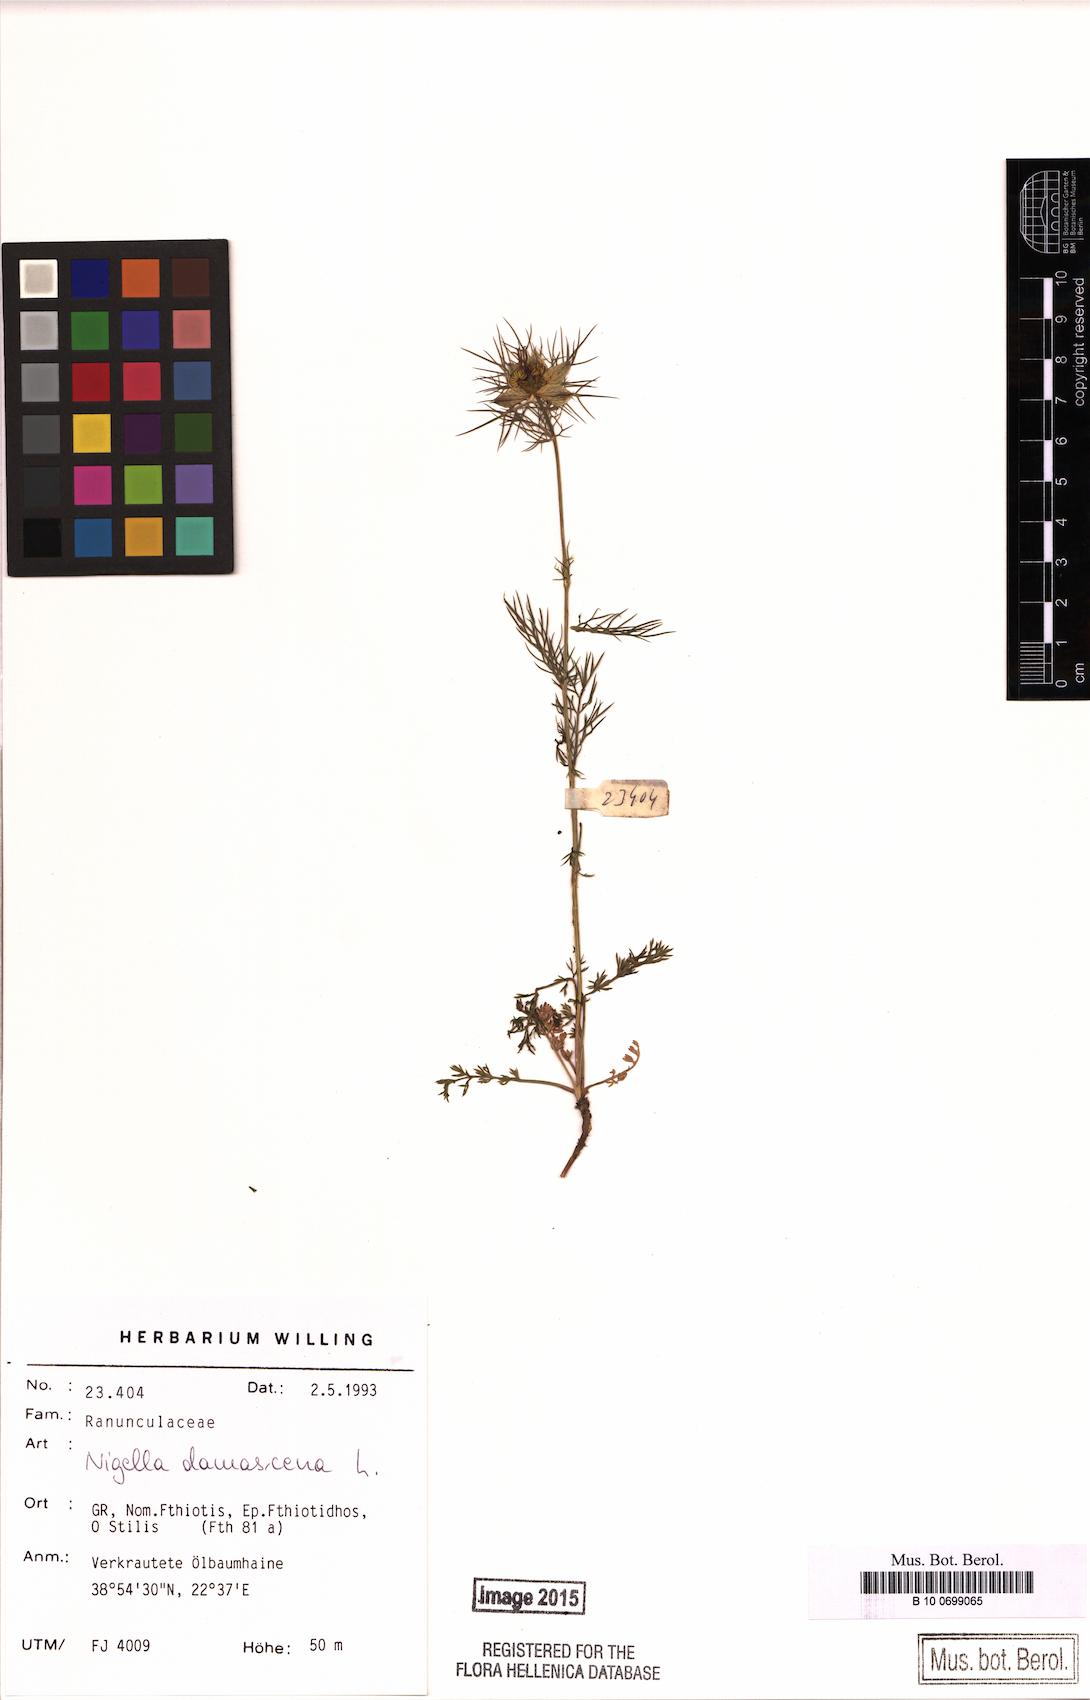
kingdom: Plantae
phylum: Tracheophyta
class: Magnoliopsida
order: Ranunculales
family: Ranunculaceae
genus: Nigella
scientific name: Nigella damascena
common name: Love-in-a-mist
